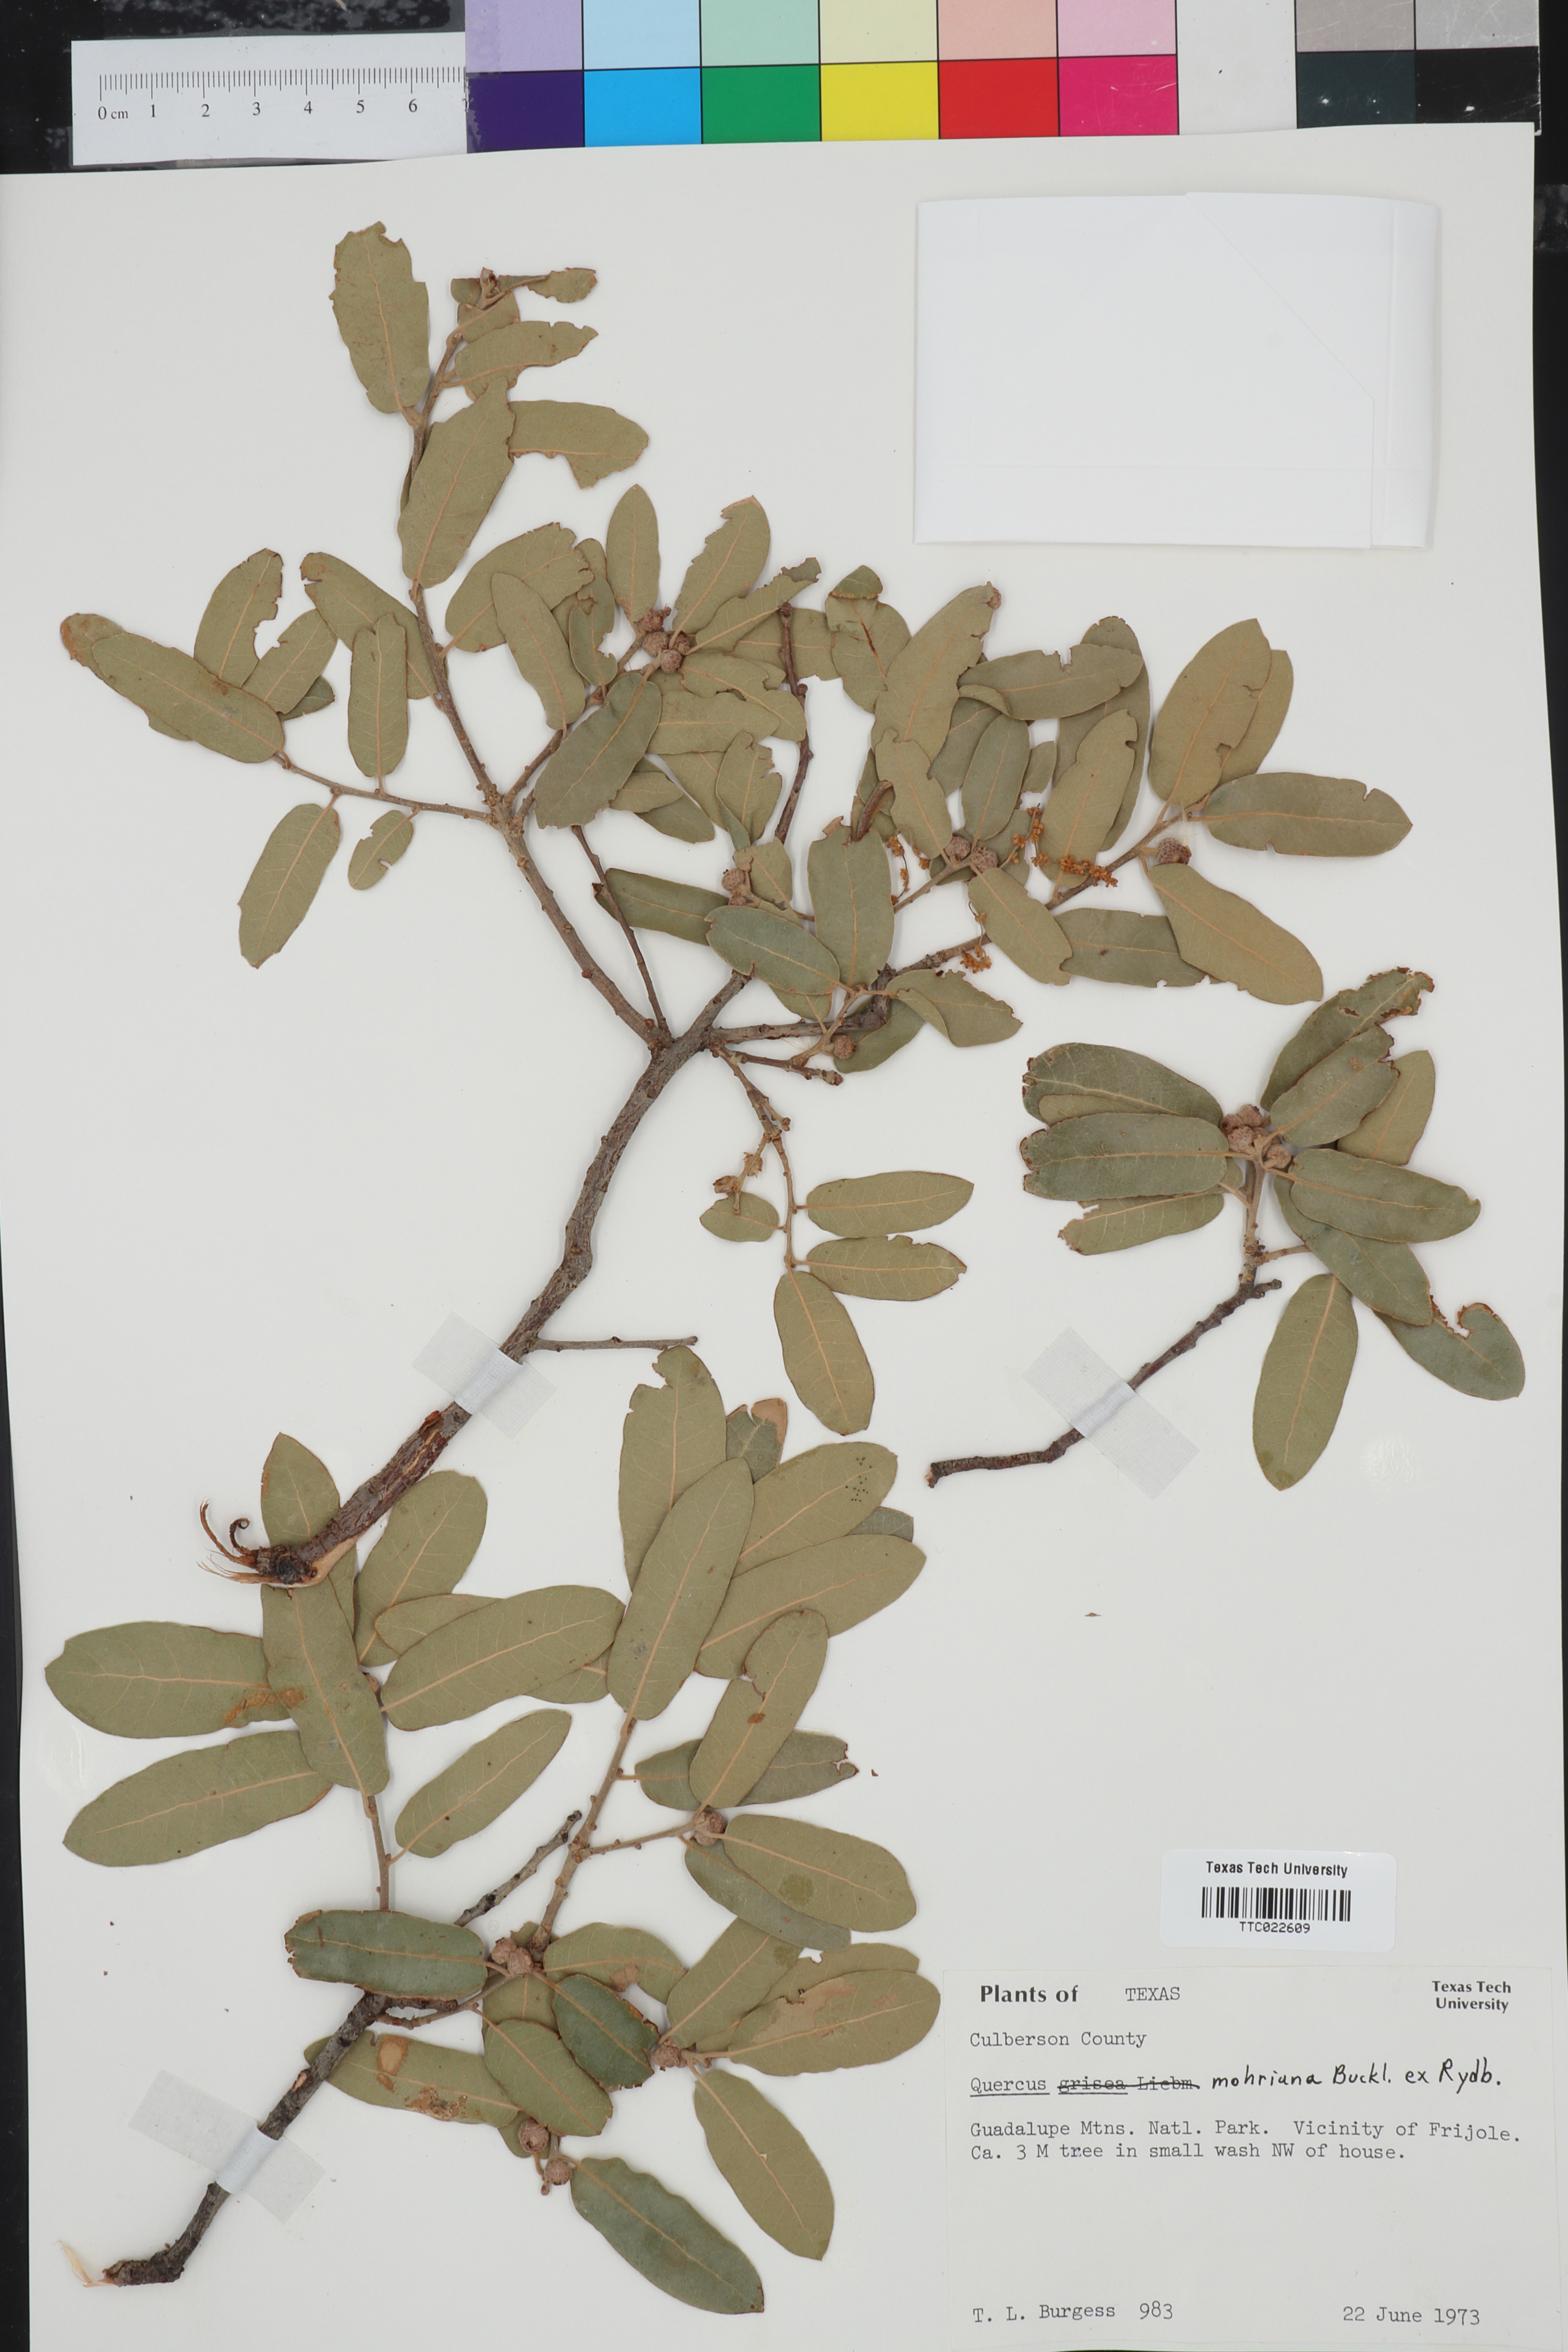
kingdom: Plantae
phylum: Tracheophyta
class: Magnoliopsida
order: Fagales
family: Fagaceae
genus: Quercus
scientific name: Quercus mohriana
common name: Mohr oak
